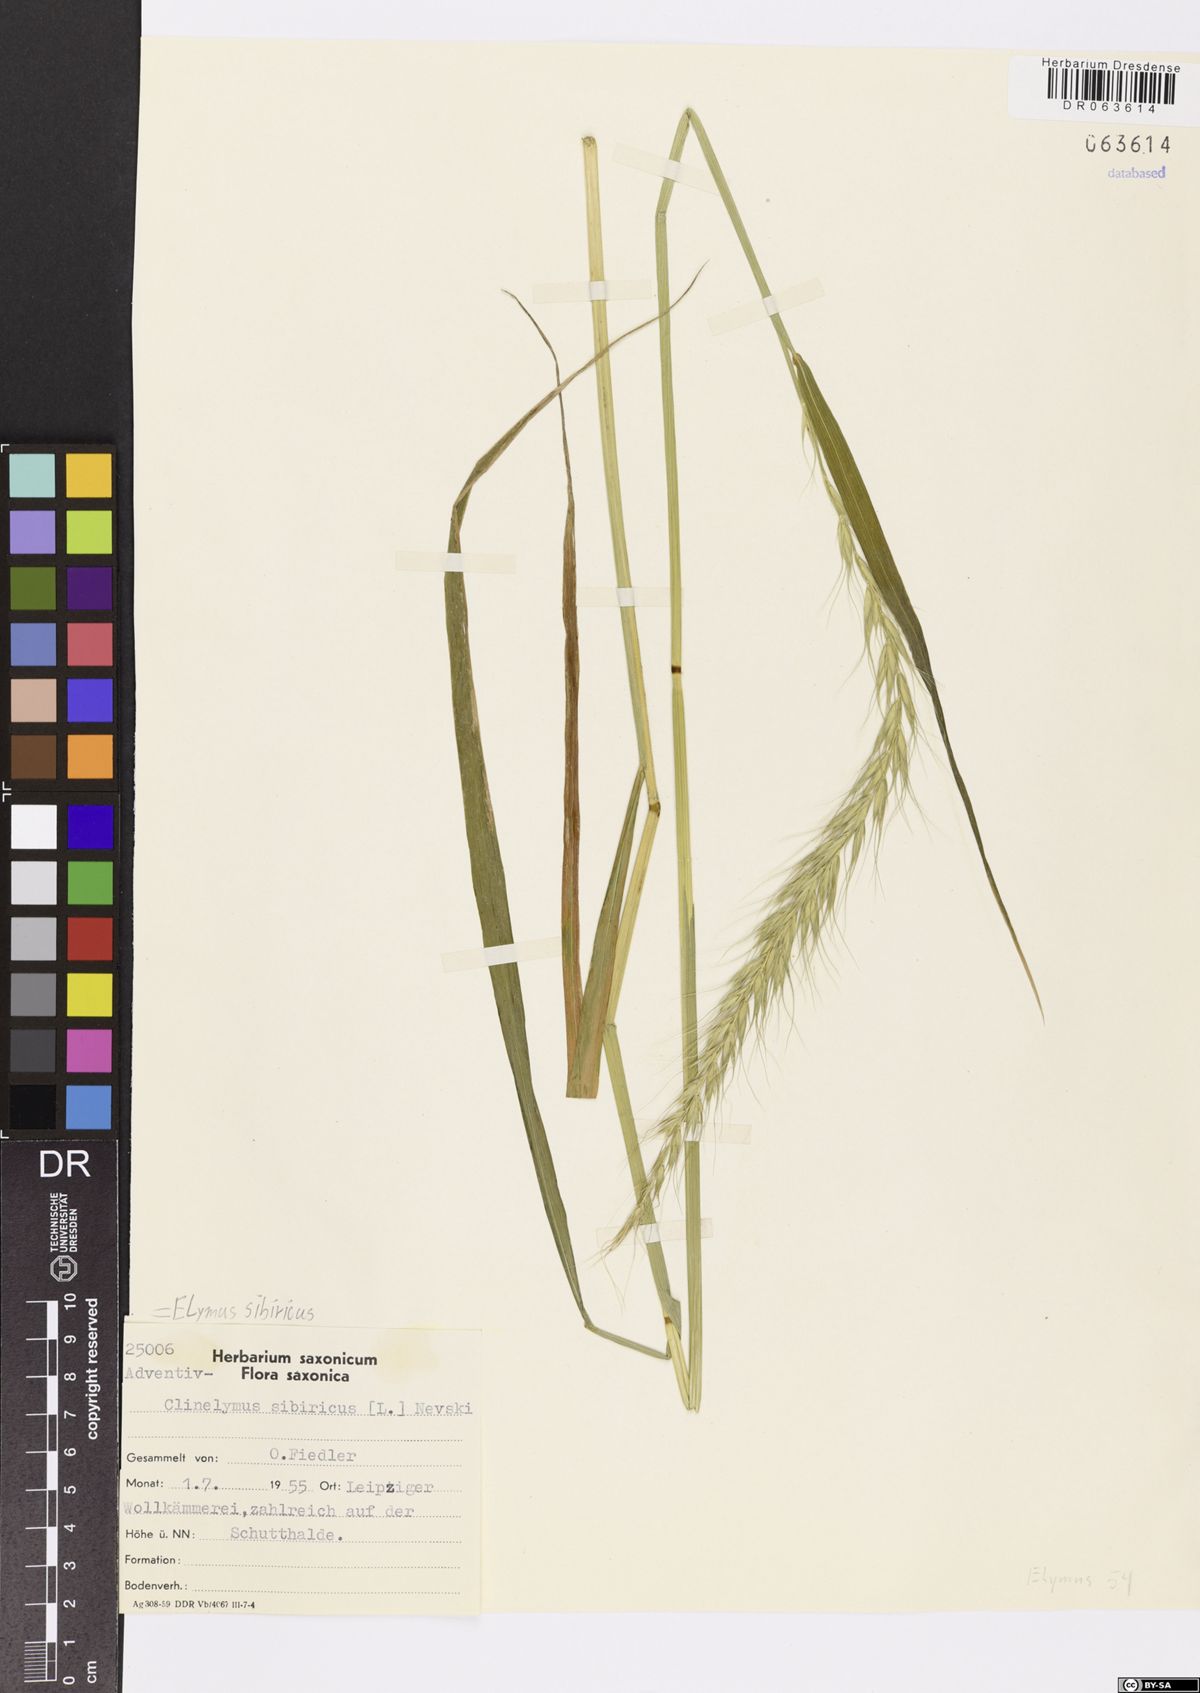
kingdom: Plantae
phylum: Tracheophyta
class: Liliopsida
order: Poales
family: Poaceae
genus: Elymus
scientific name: Elymus sibiricus
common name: Siberian wildrye
